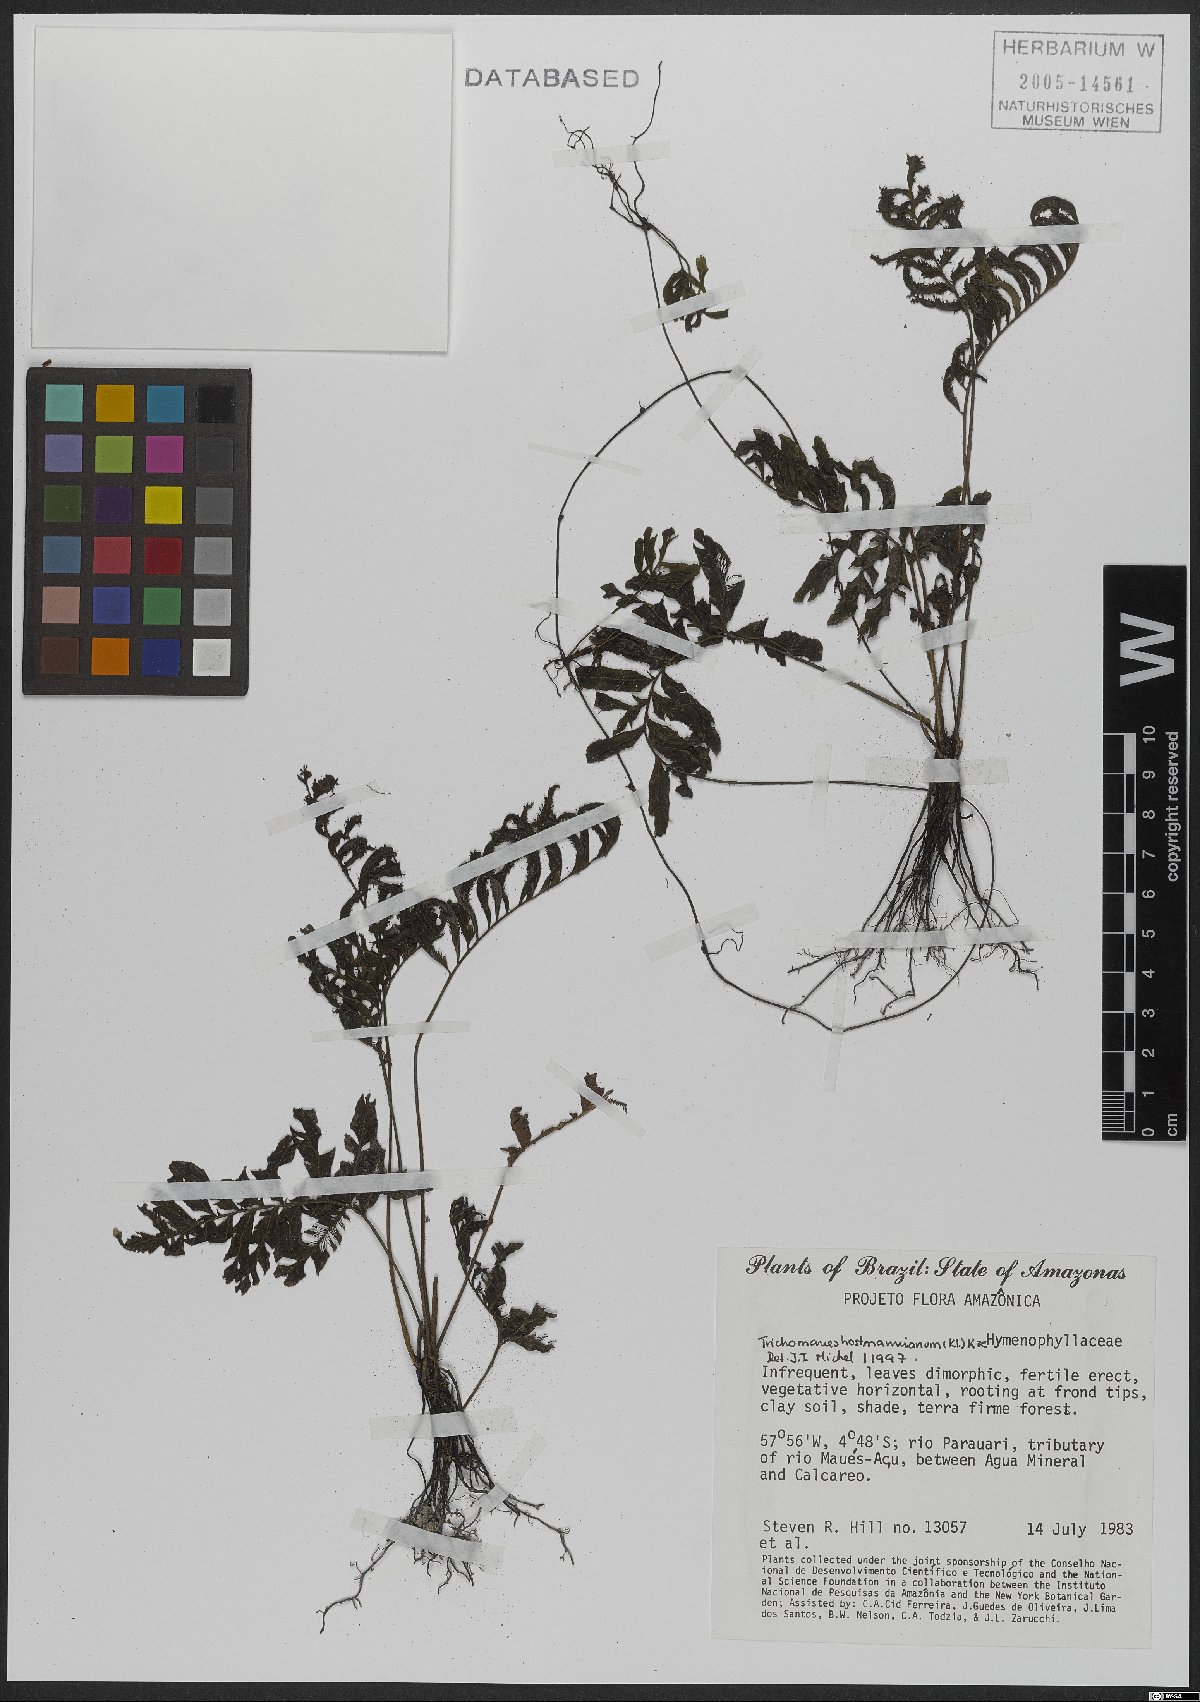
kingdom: Plantae
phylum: Tracheophyta
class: Polypodiopsida
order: Hymenophyllales
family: Hymenophyllaceae
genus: Trichomanes
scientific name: Trichomanes hostmannianum
